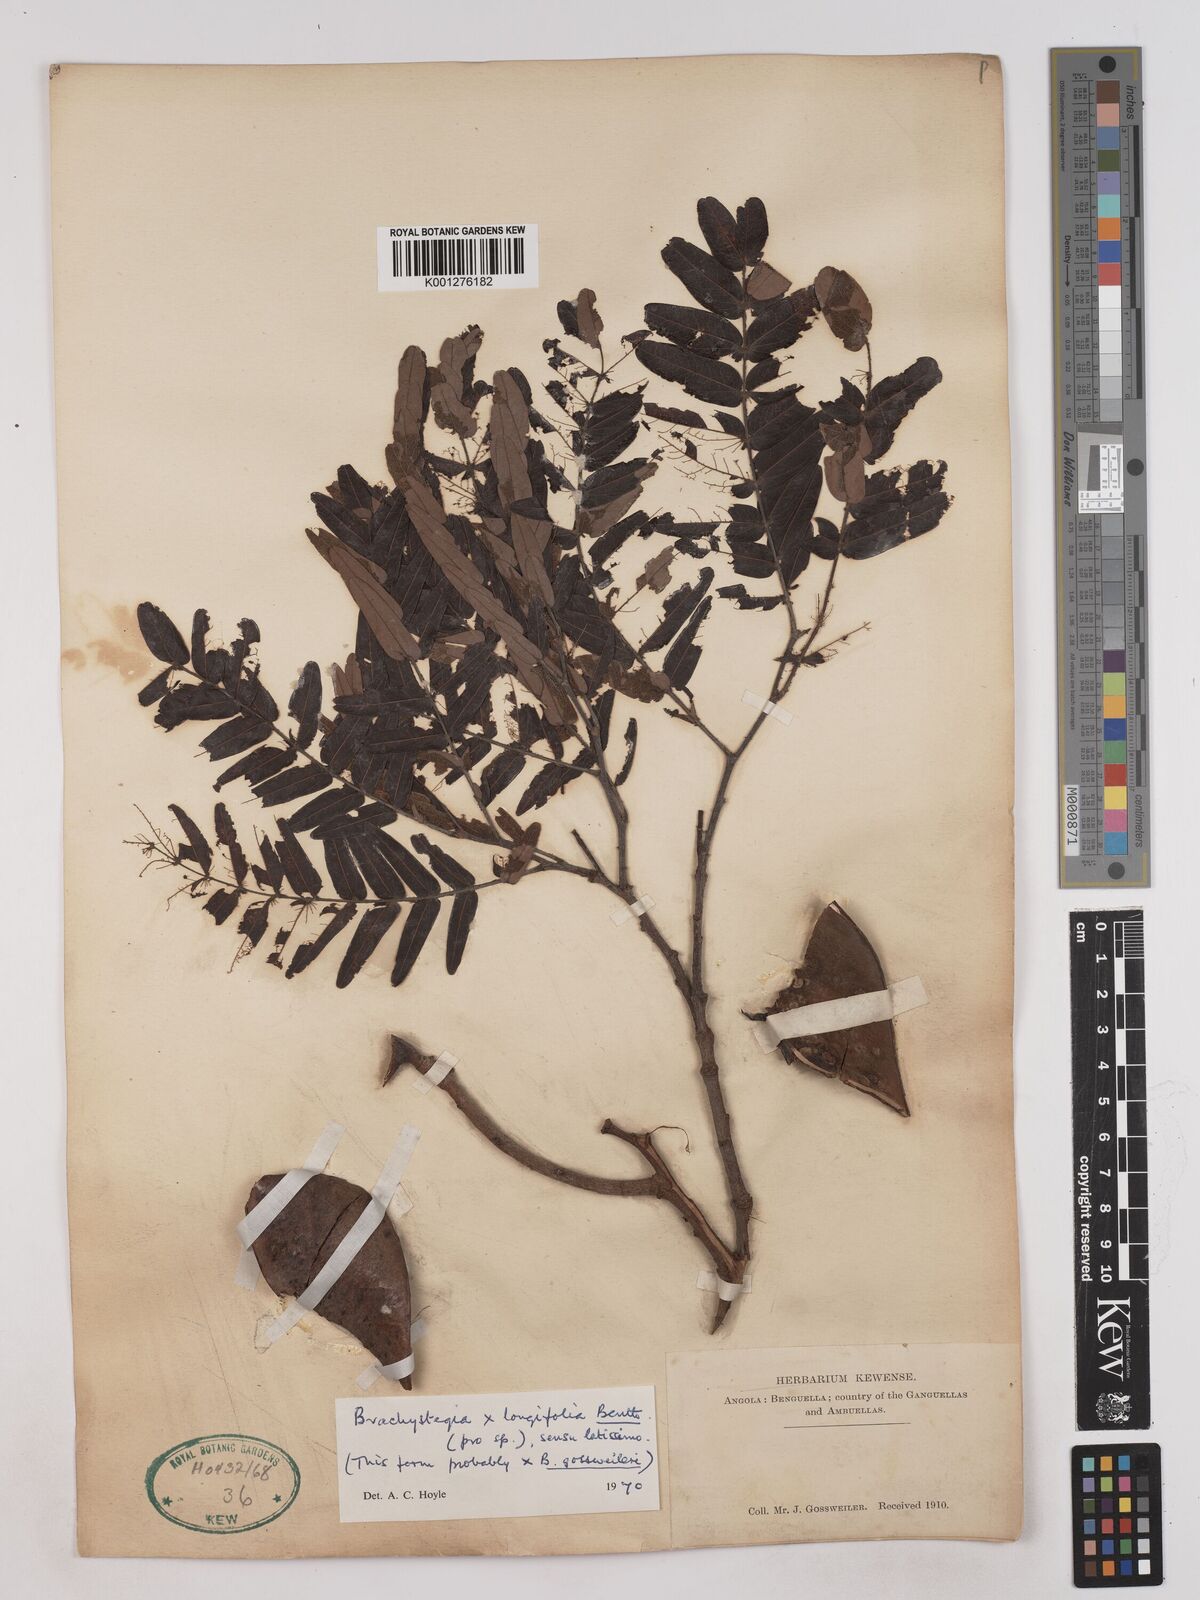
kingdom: Plantae
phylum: Tracheophyta
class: Magnoliopsida
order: Fabales
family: Fabaceae
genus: Brachystegia
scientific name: Brachystegia longifolia
